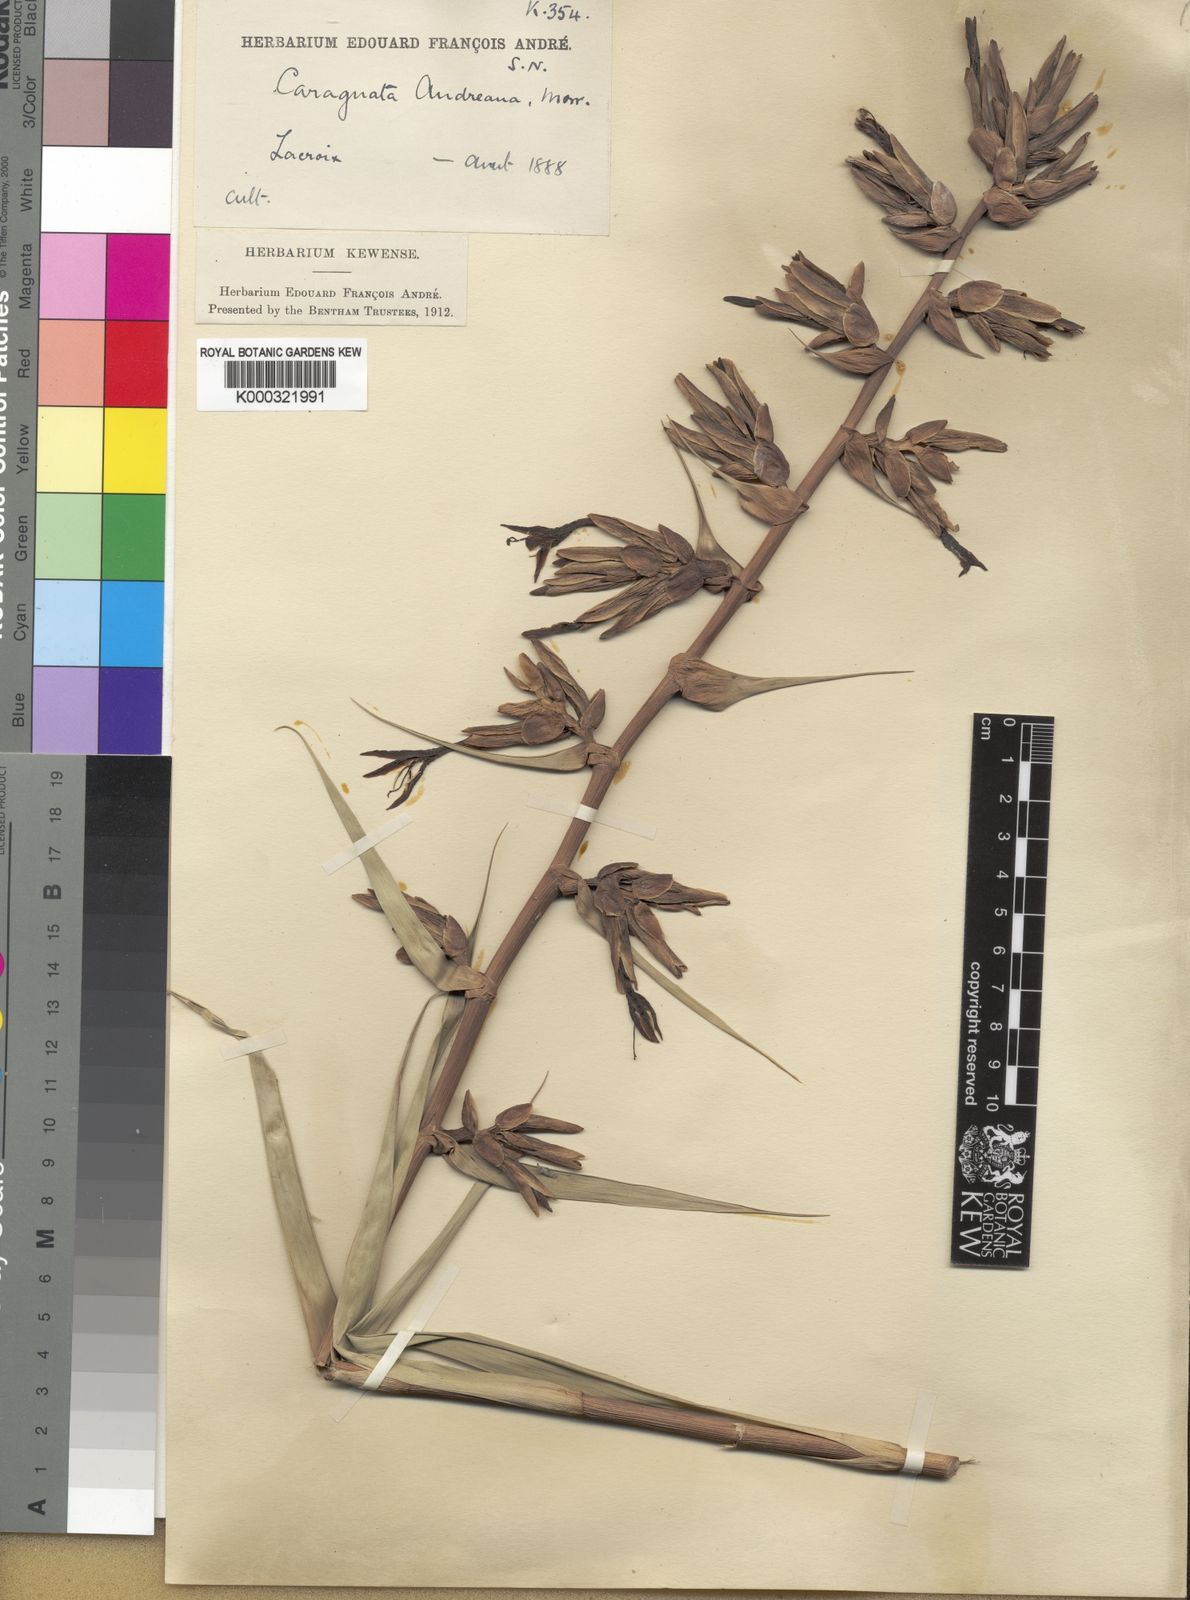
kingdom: Plantae
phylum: Tracheophyta
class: Liliopsida
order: Poales
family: Bromeliaceae
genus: Guzmania
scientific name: Guzmania andreana
